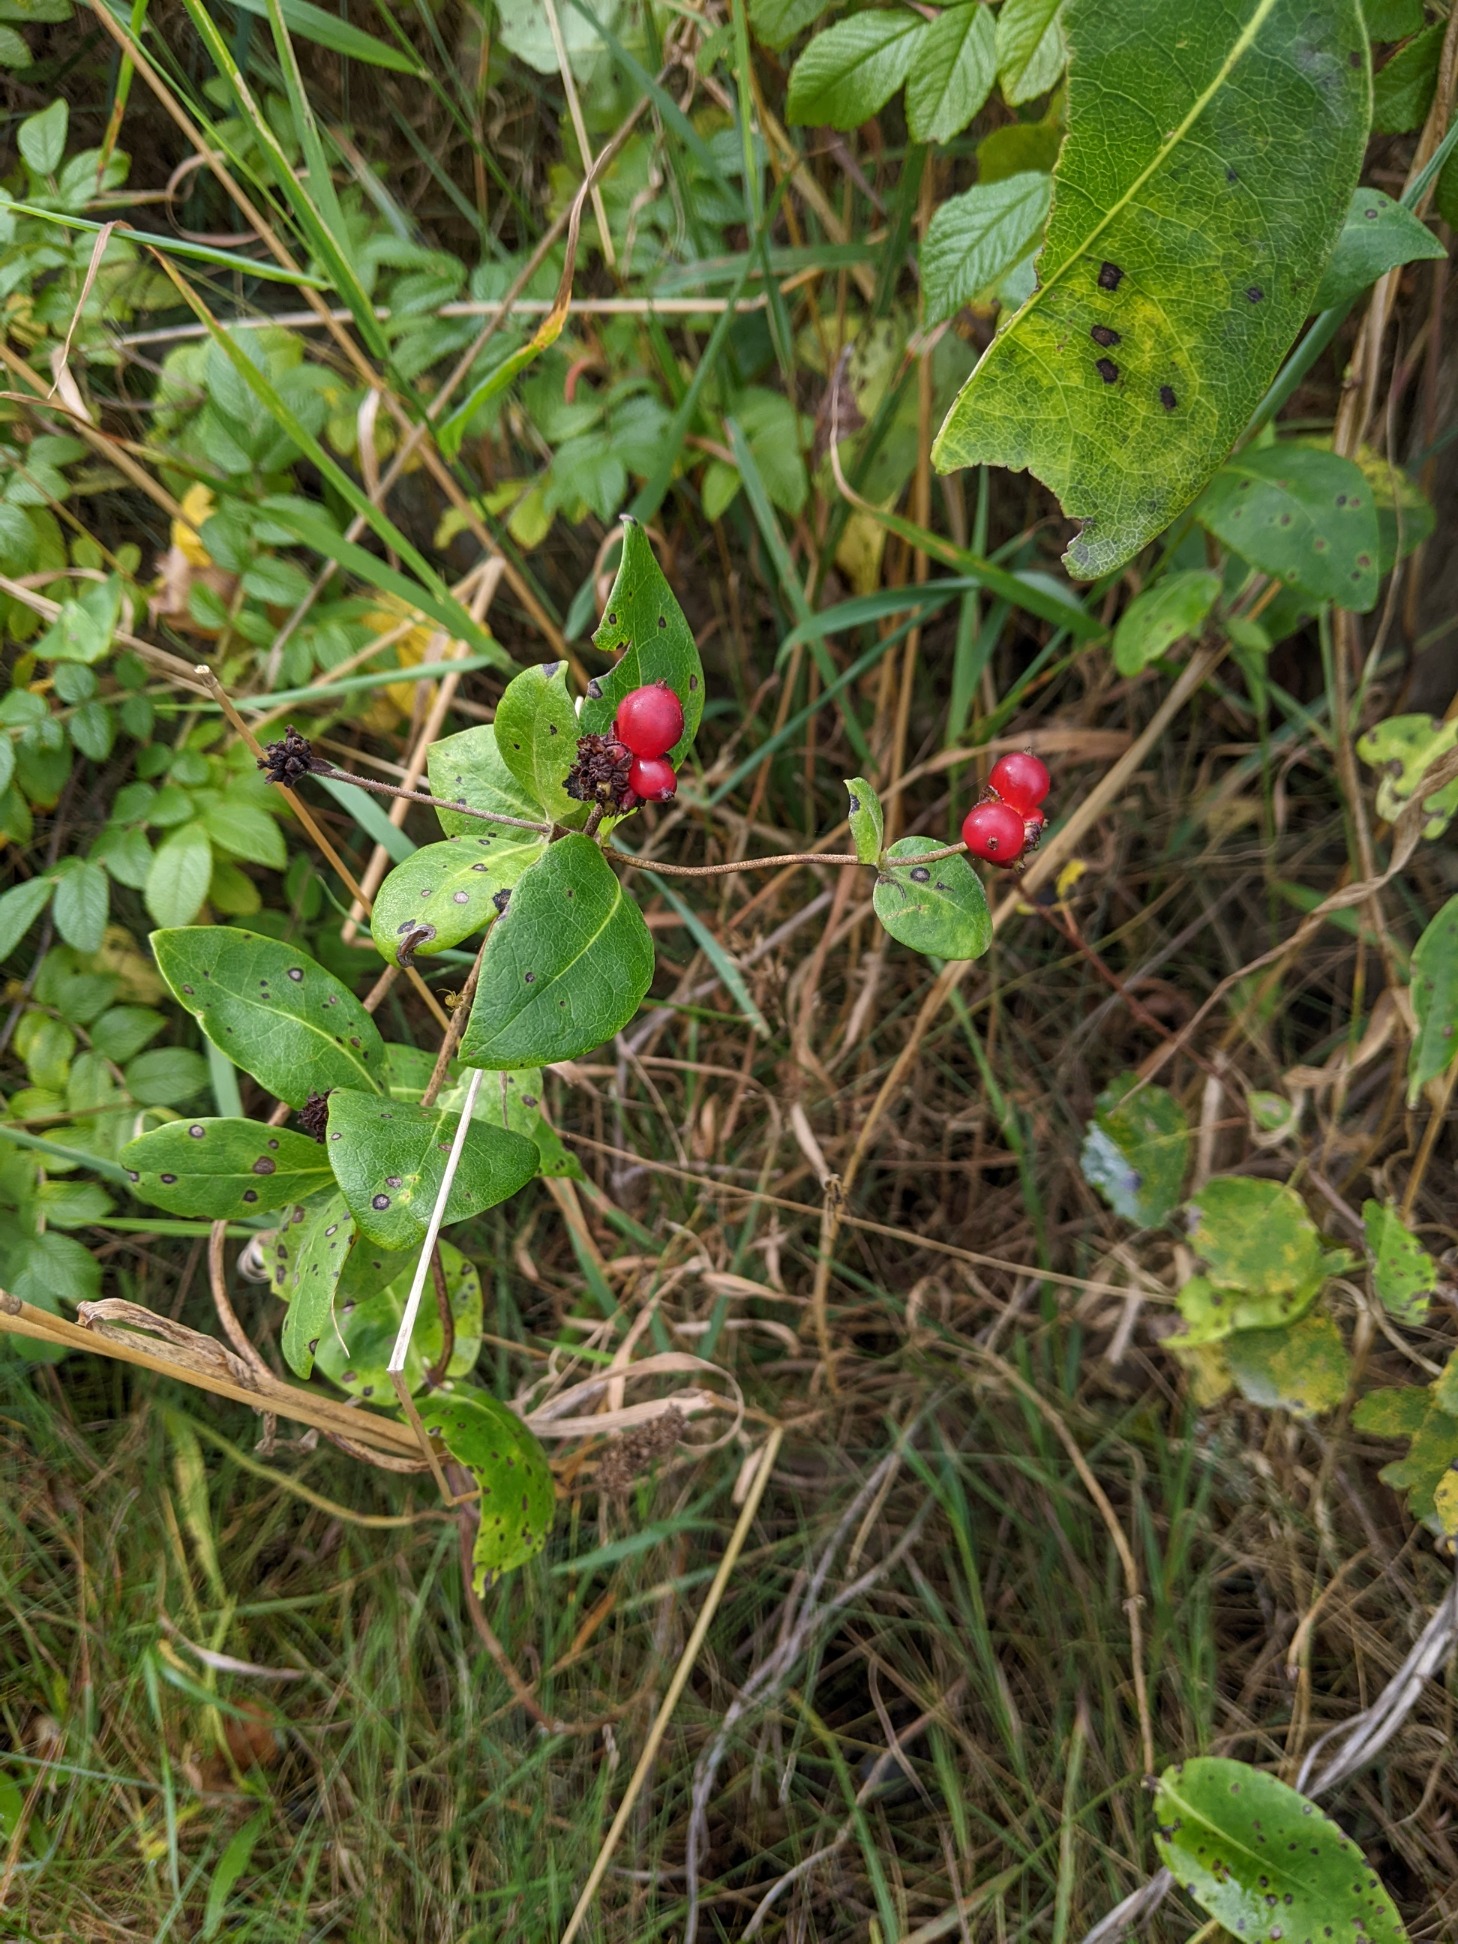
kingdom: Plantae
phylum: Tracheophyta
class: Magnoliopsida
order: Dipsacales
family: Caprifoliaceae
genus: Lonicera
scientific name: Lonicera periclymenum
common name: Almindelig gedeblad
